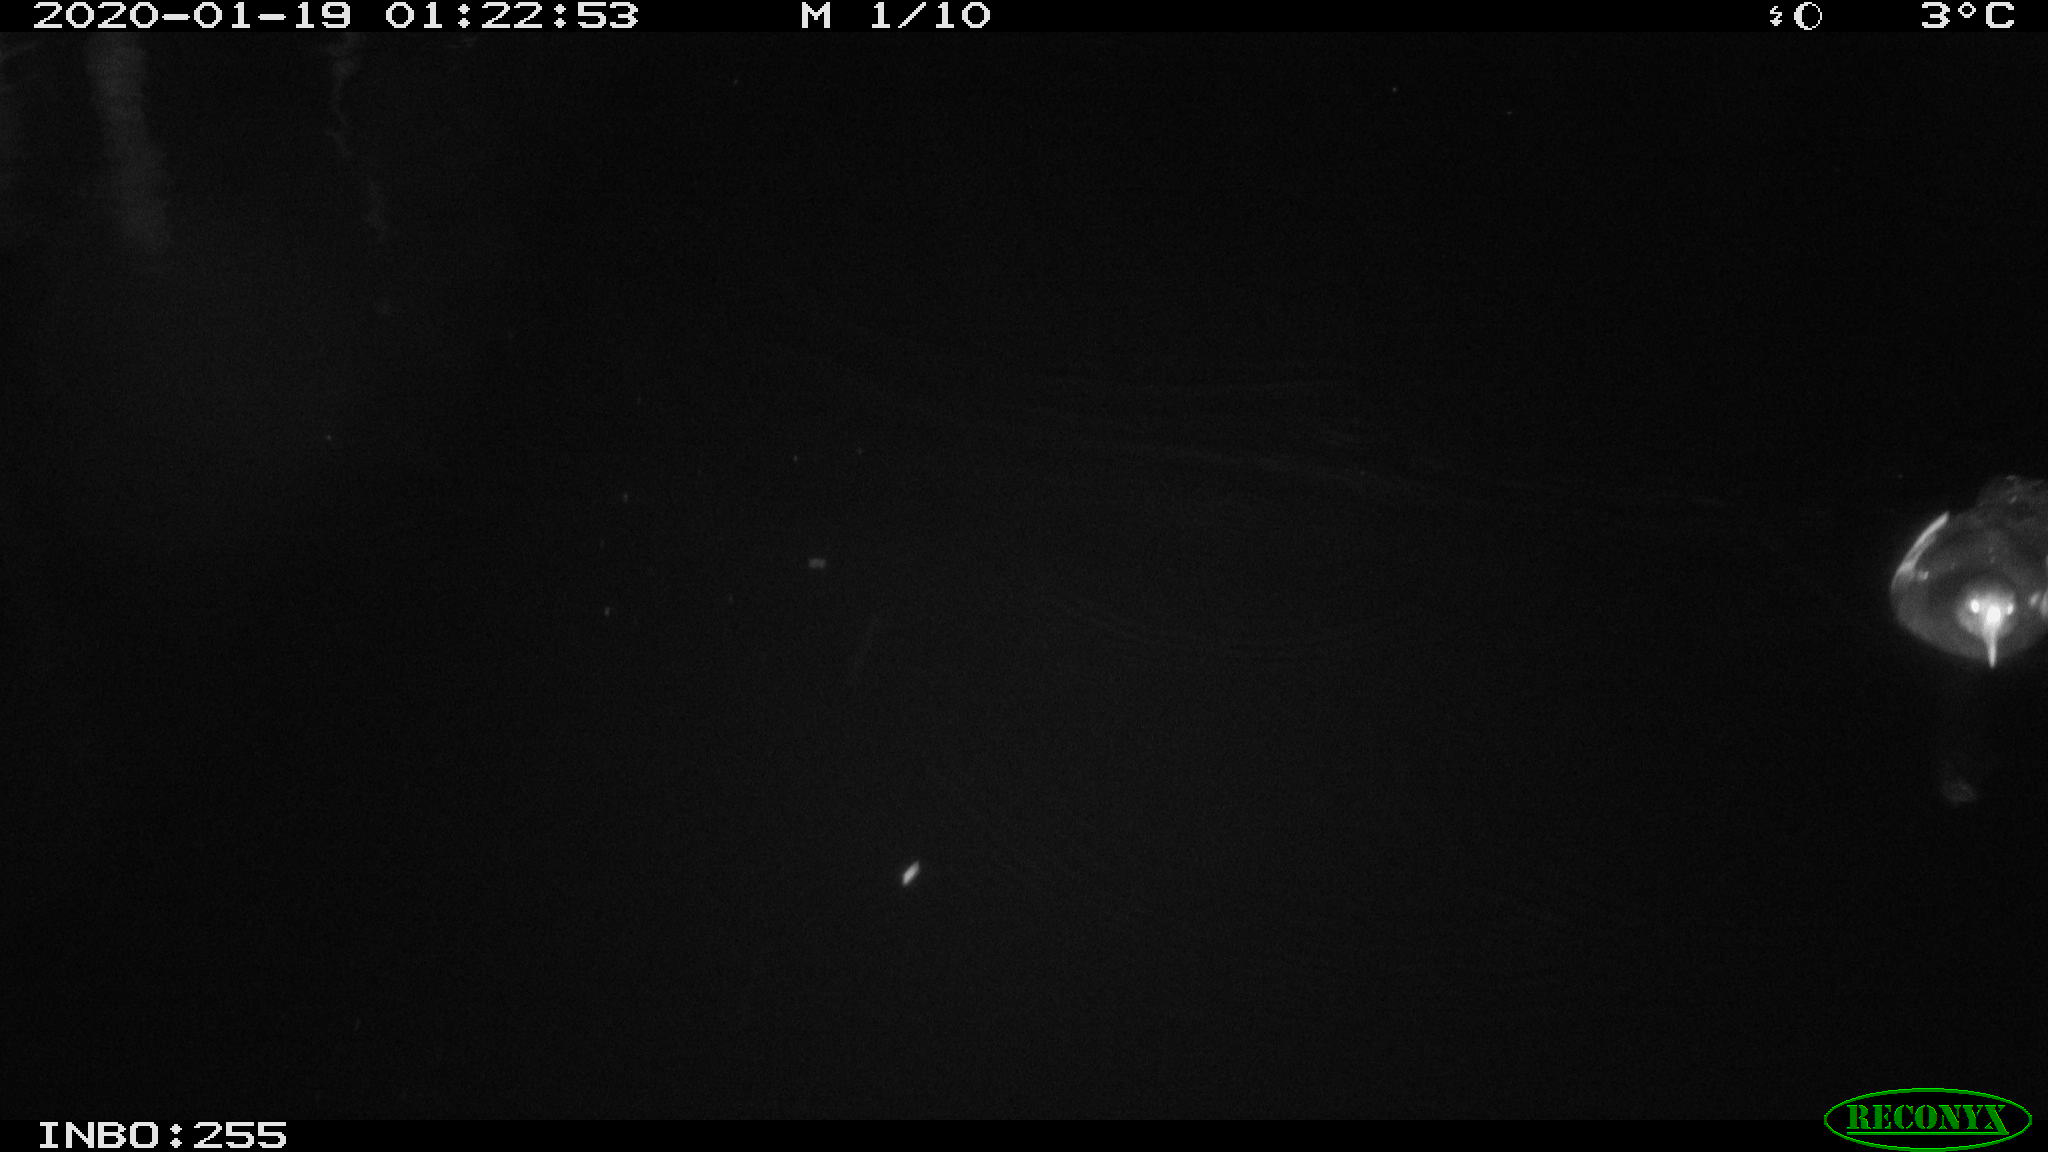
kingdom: Animalia
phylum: Chordata
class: Aves
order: Gruiformes
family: Rallidae
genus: Gallinula
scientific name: Gallinula chloropus
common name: Common moorhen
